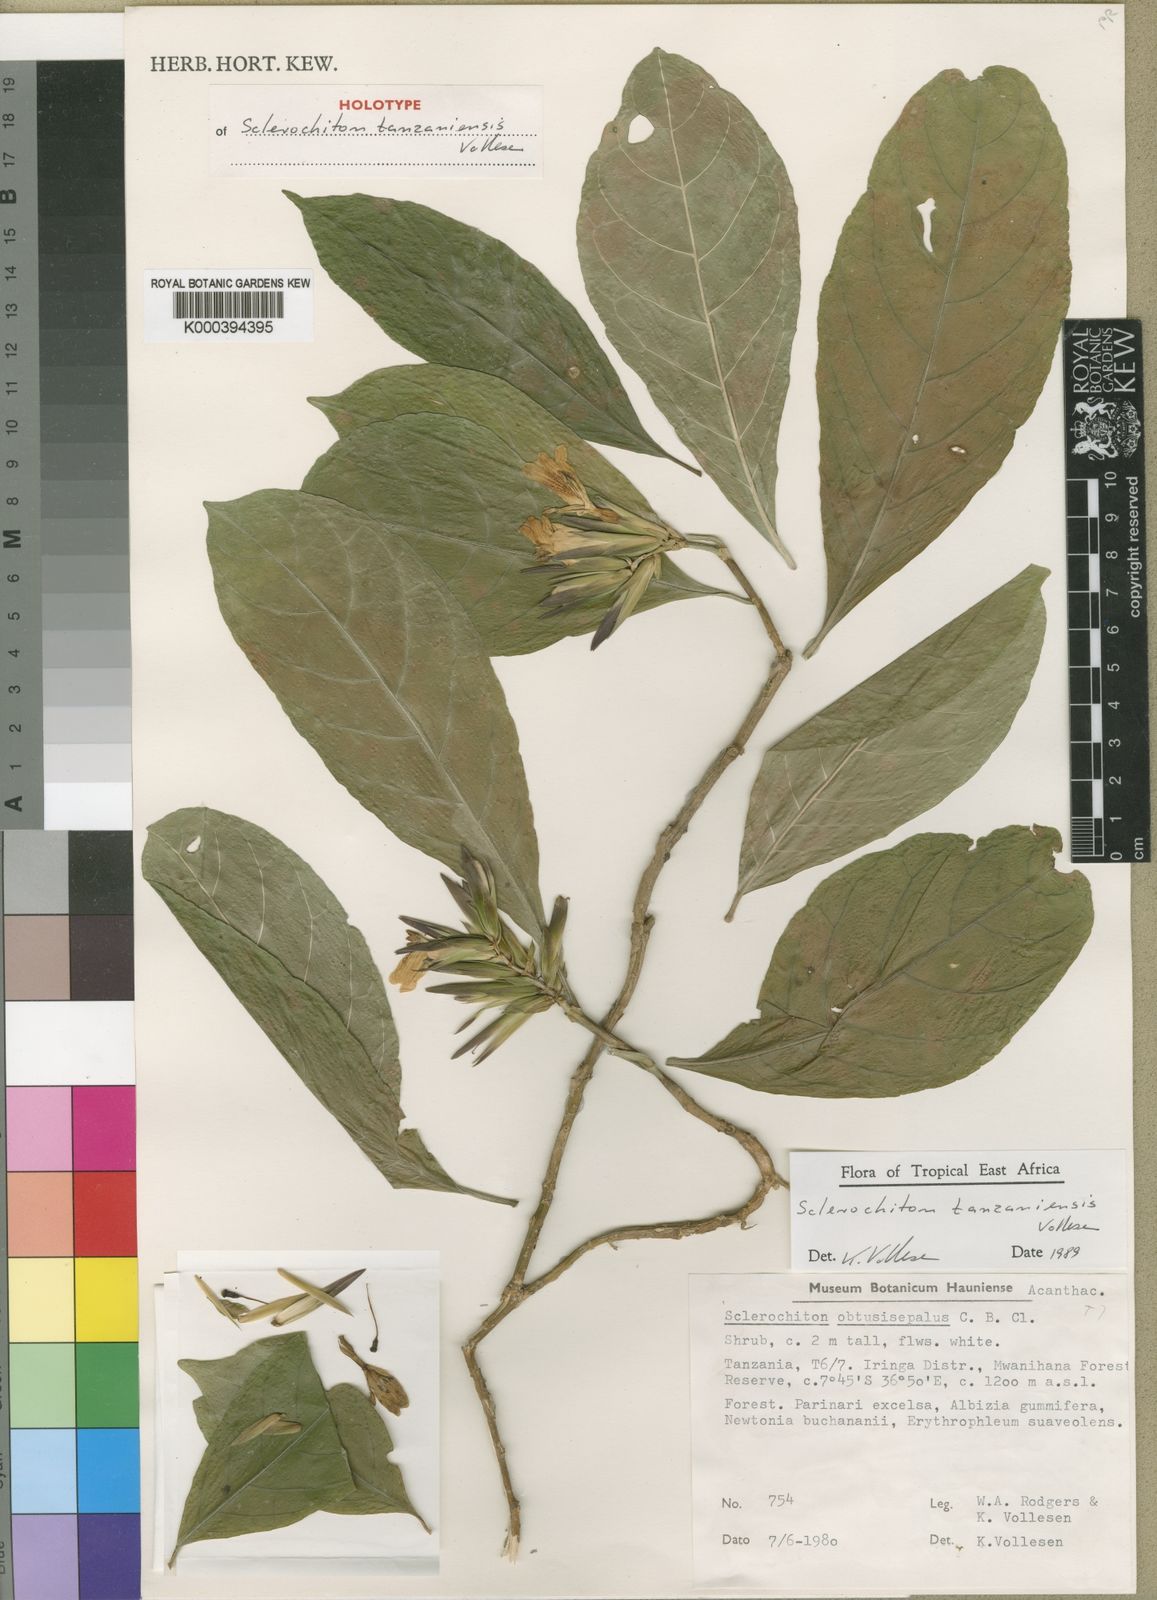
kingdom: Plantae
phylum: Tracheophyta
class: Magnoliopsida
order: Lamiales
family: Acanthaceae
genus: Sclerochiton
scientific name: Sclerochiton tanzaniensis
